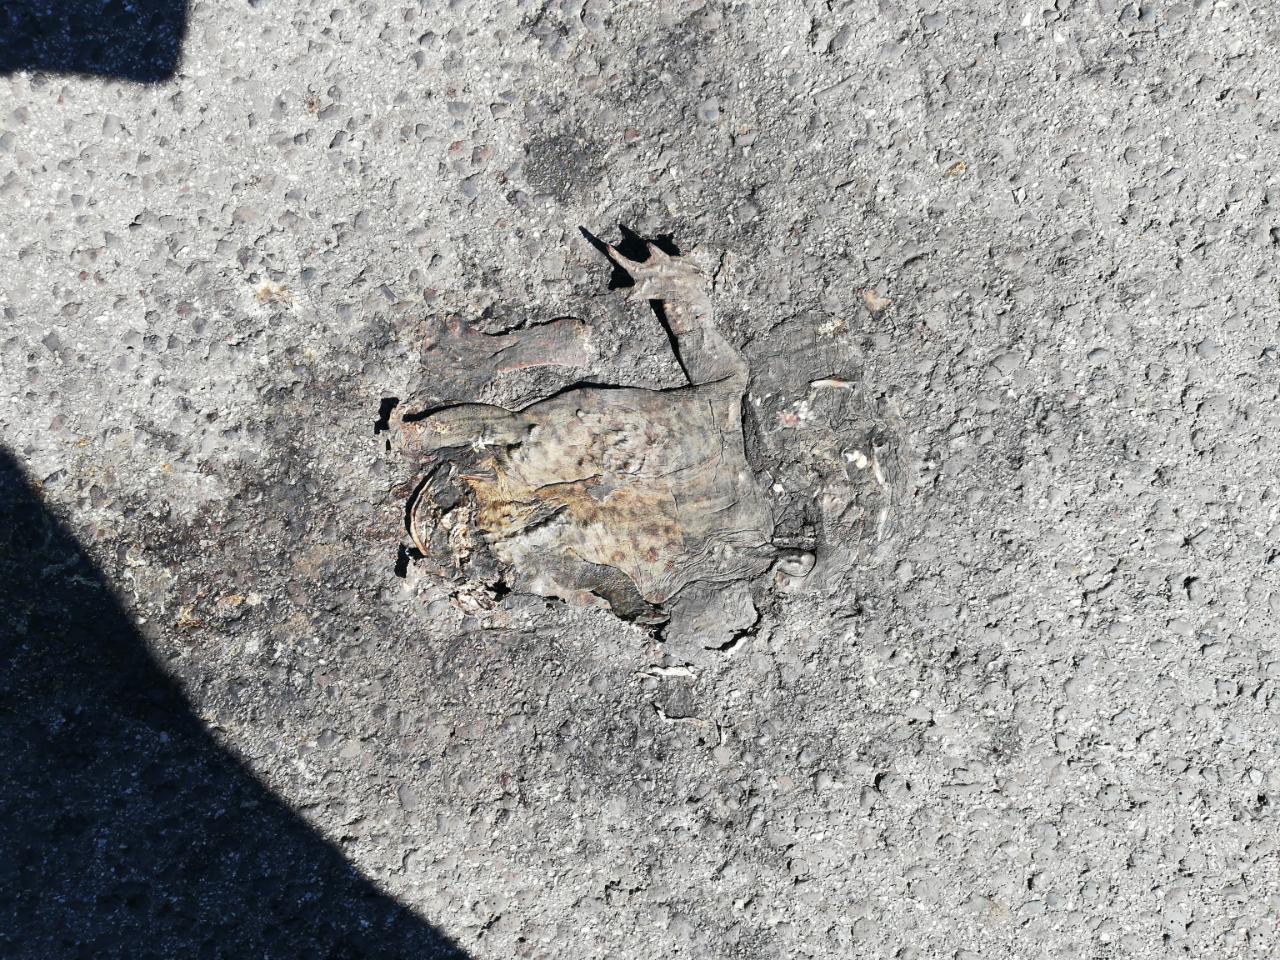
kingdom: Animalia
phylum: Chordata
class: Amphibia
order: Anura
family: Bufonidae
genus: Bufo
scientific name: Bufo bufo
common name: Common toad
